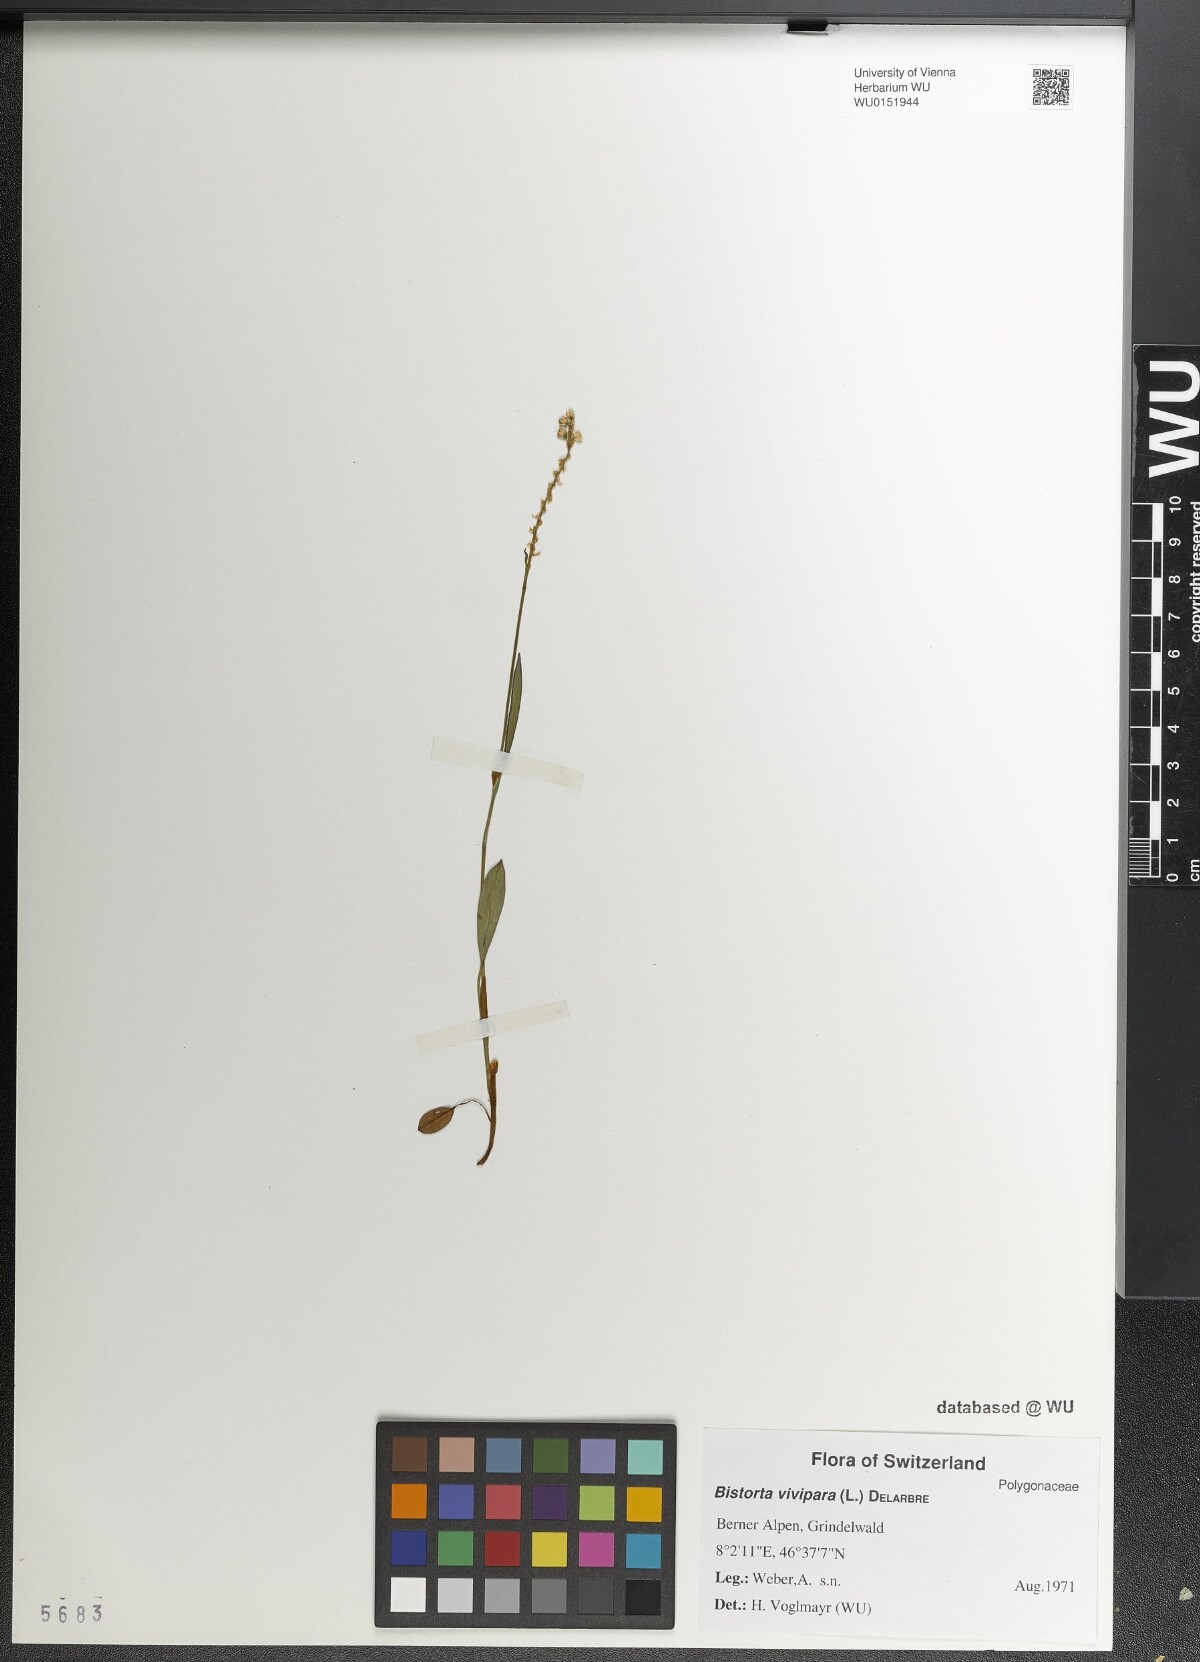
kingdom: Plantae
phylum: Tracheophyta
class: Magnoliopsida
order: Caryophyllales
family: Polygonaceae
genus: Bistorta
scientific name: Bistorta vivipara
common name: Alpine bistort
